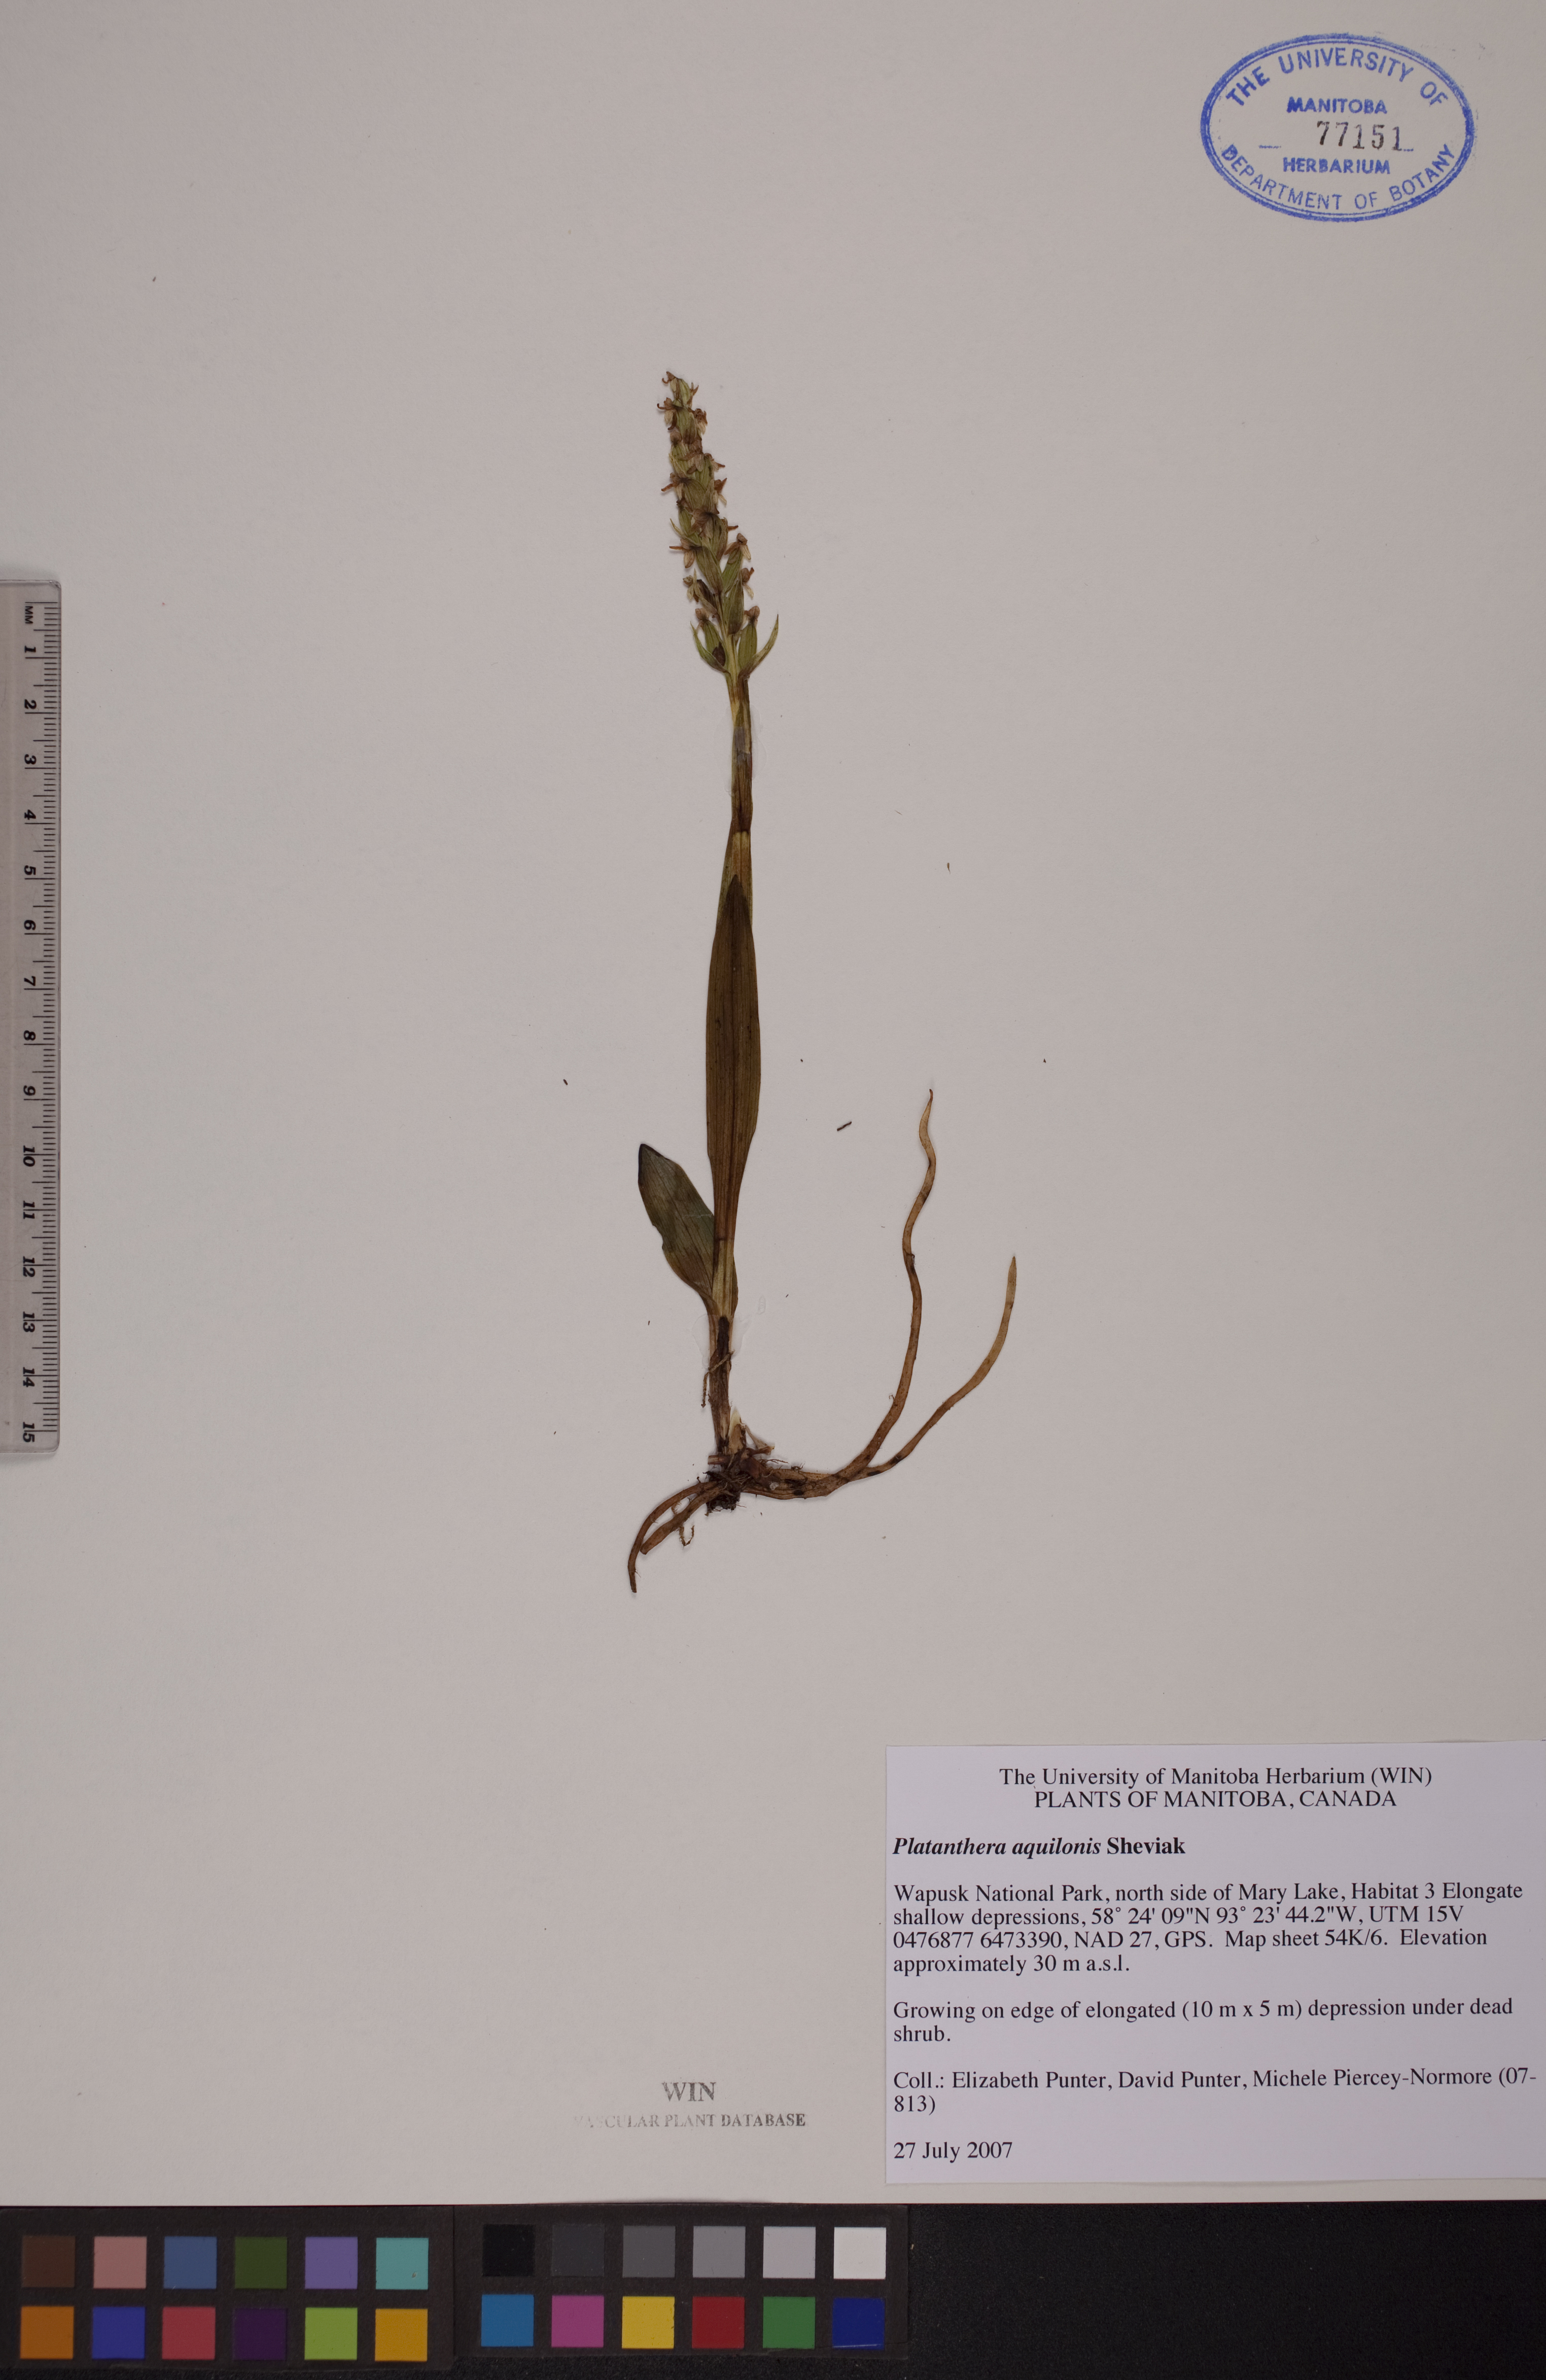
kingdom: Plantae
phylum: Tracheophyta
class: Liliopsida
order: Asparagales
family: Orchidaceae
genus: Platanthera
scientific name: Platanthera aquilonis
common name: Northern green orchid
